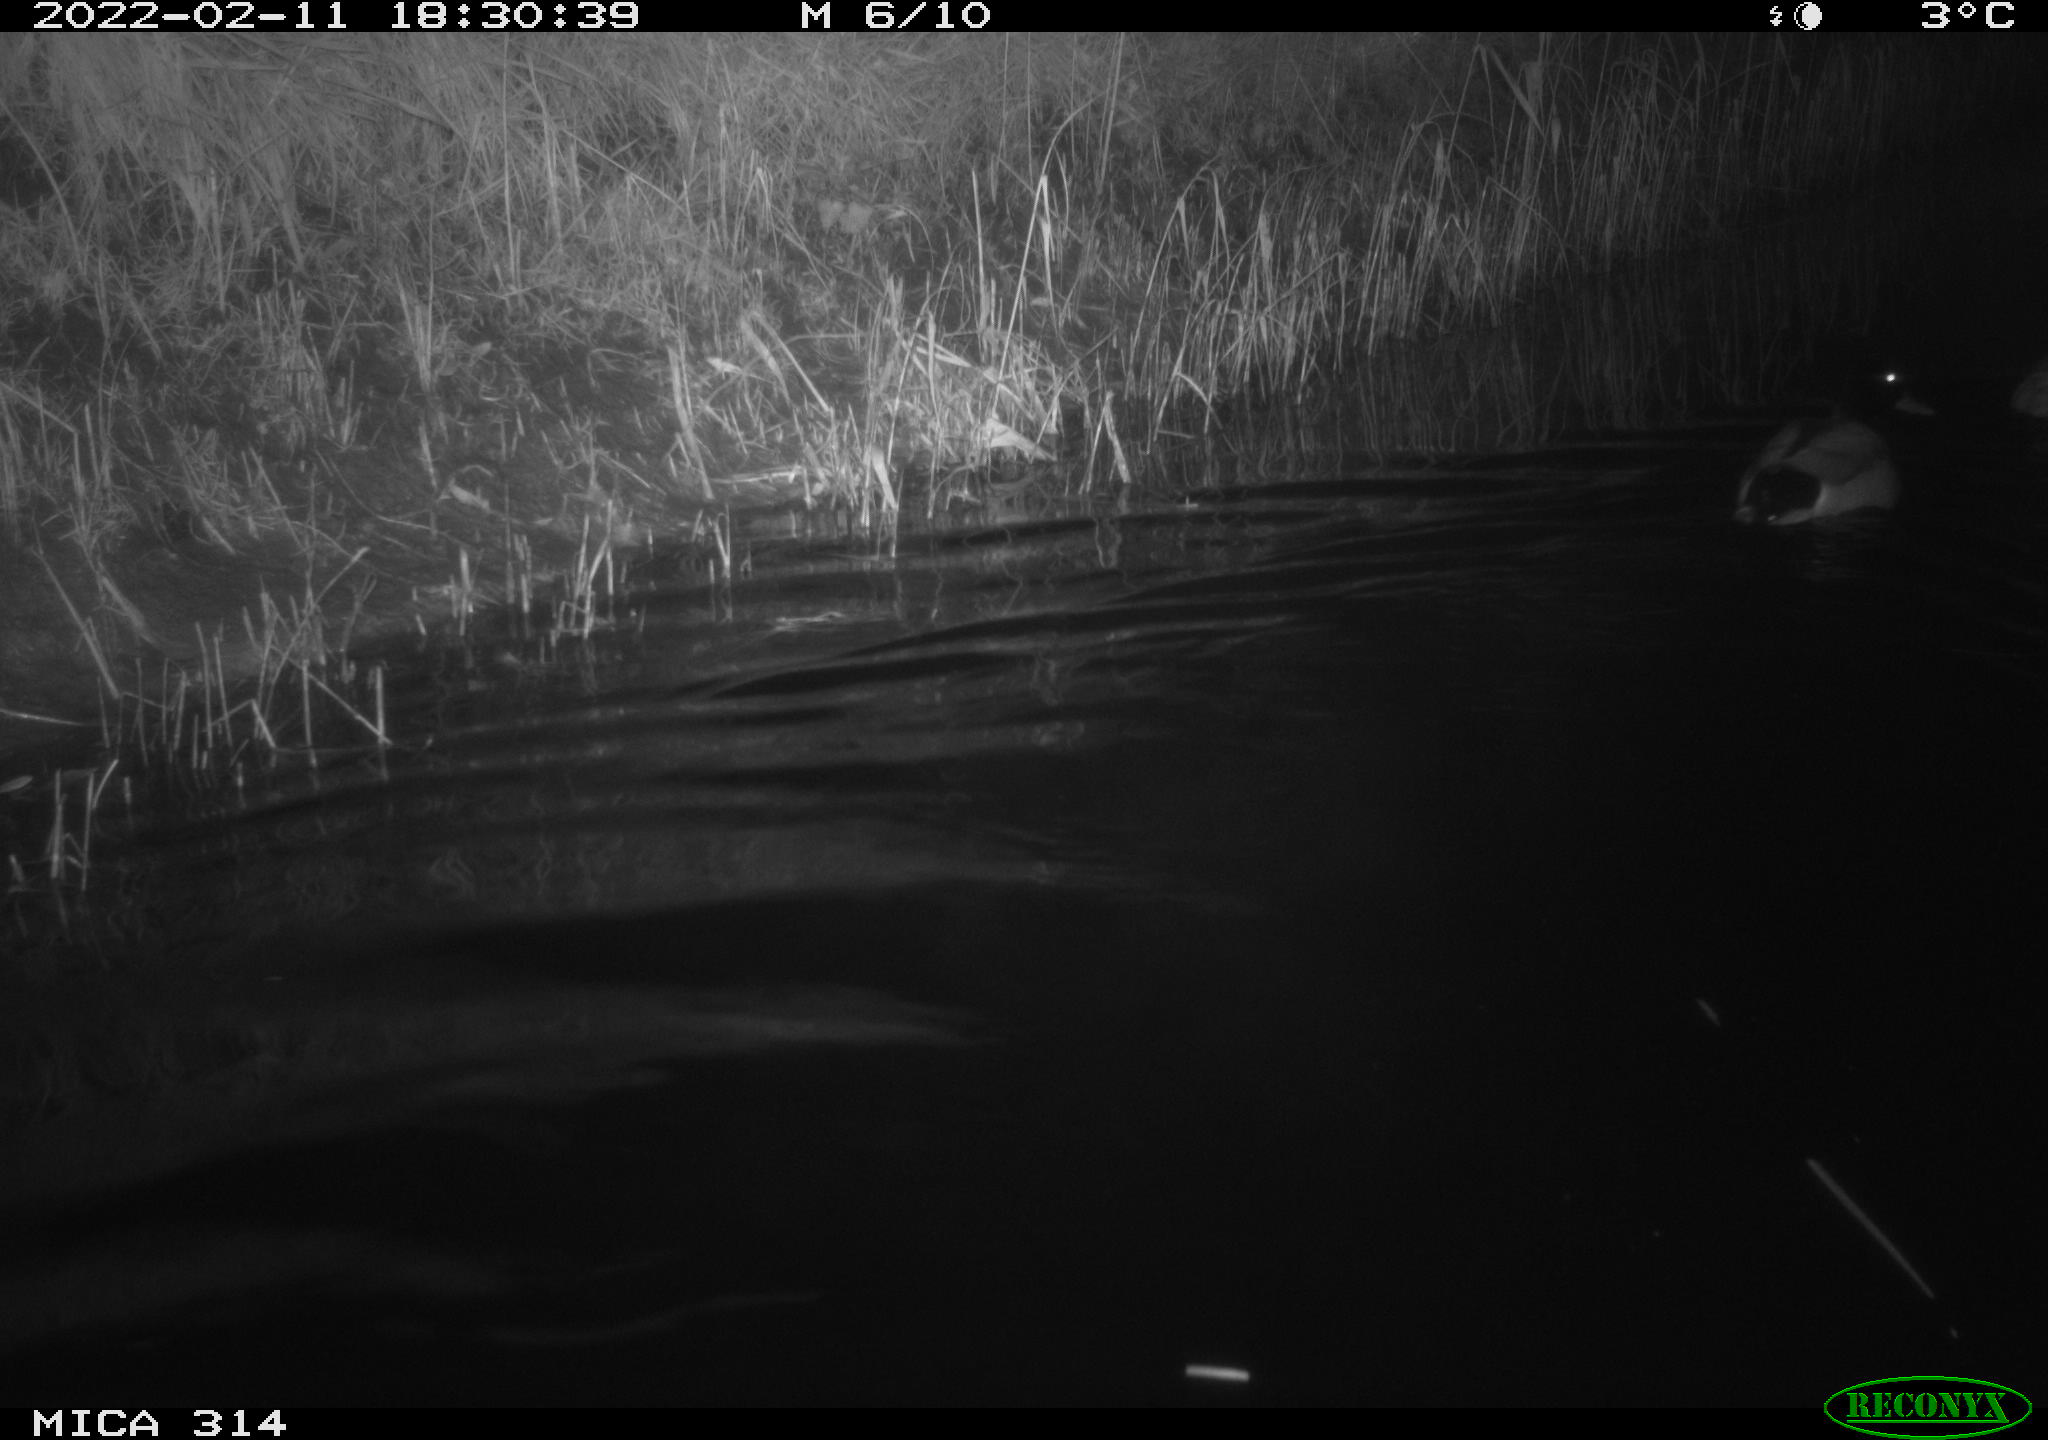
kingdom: Animalia
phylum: Chordata
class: Aves
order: Anseriformes
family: Anatidae
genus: Anas
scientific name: Anas platyrhynchos
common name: Mallard
